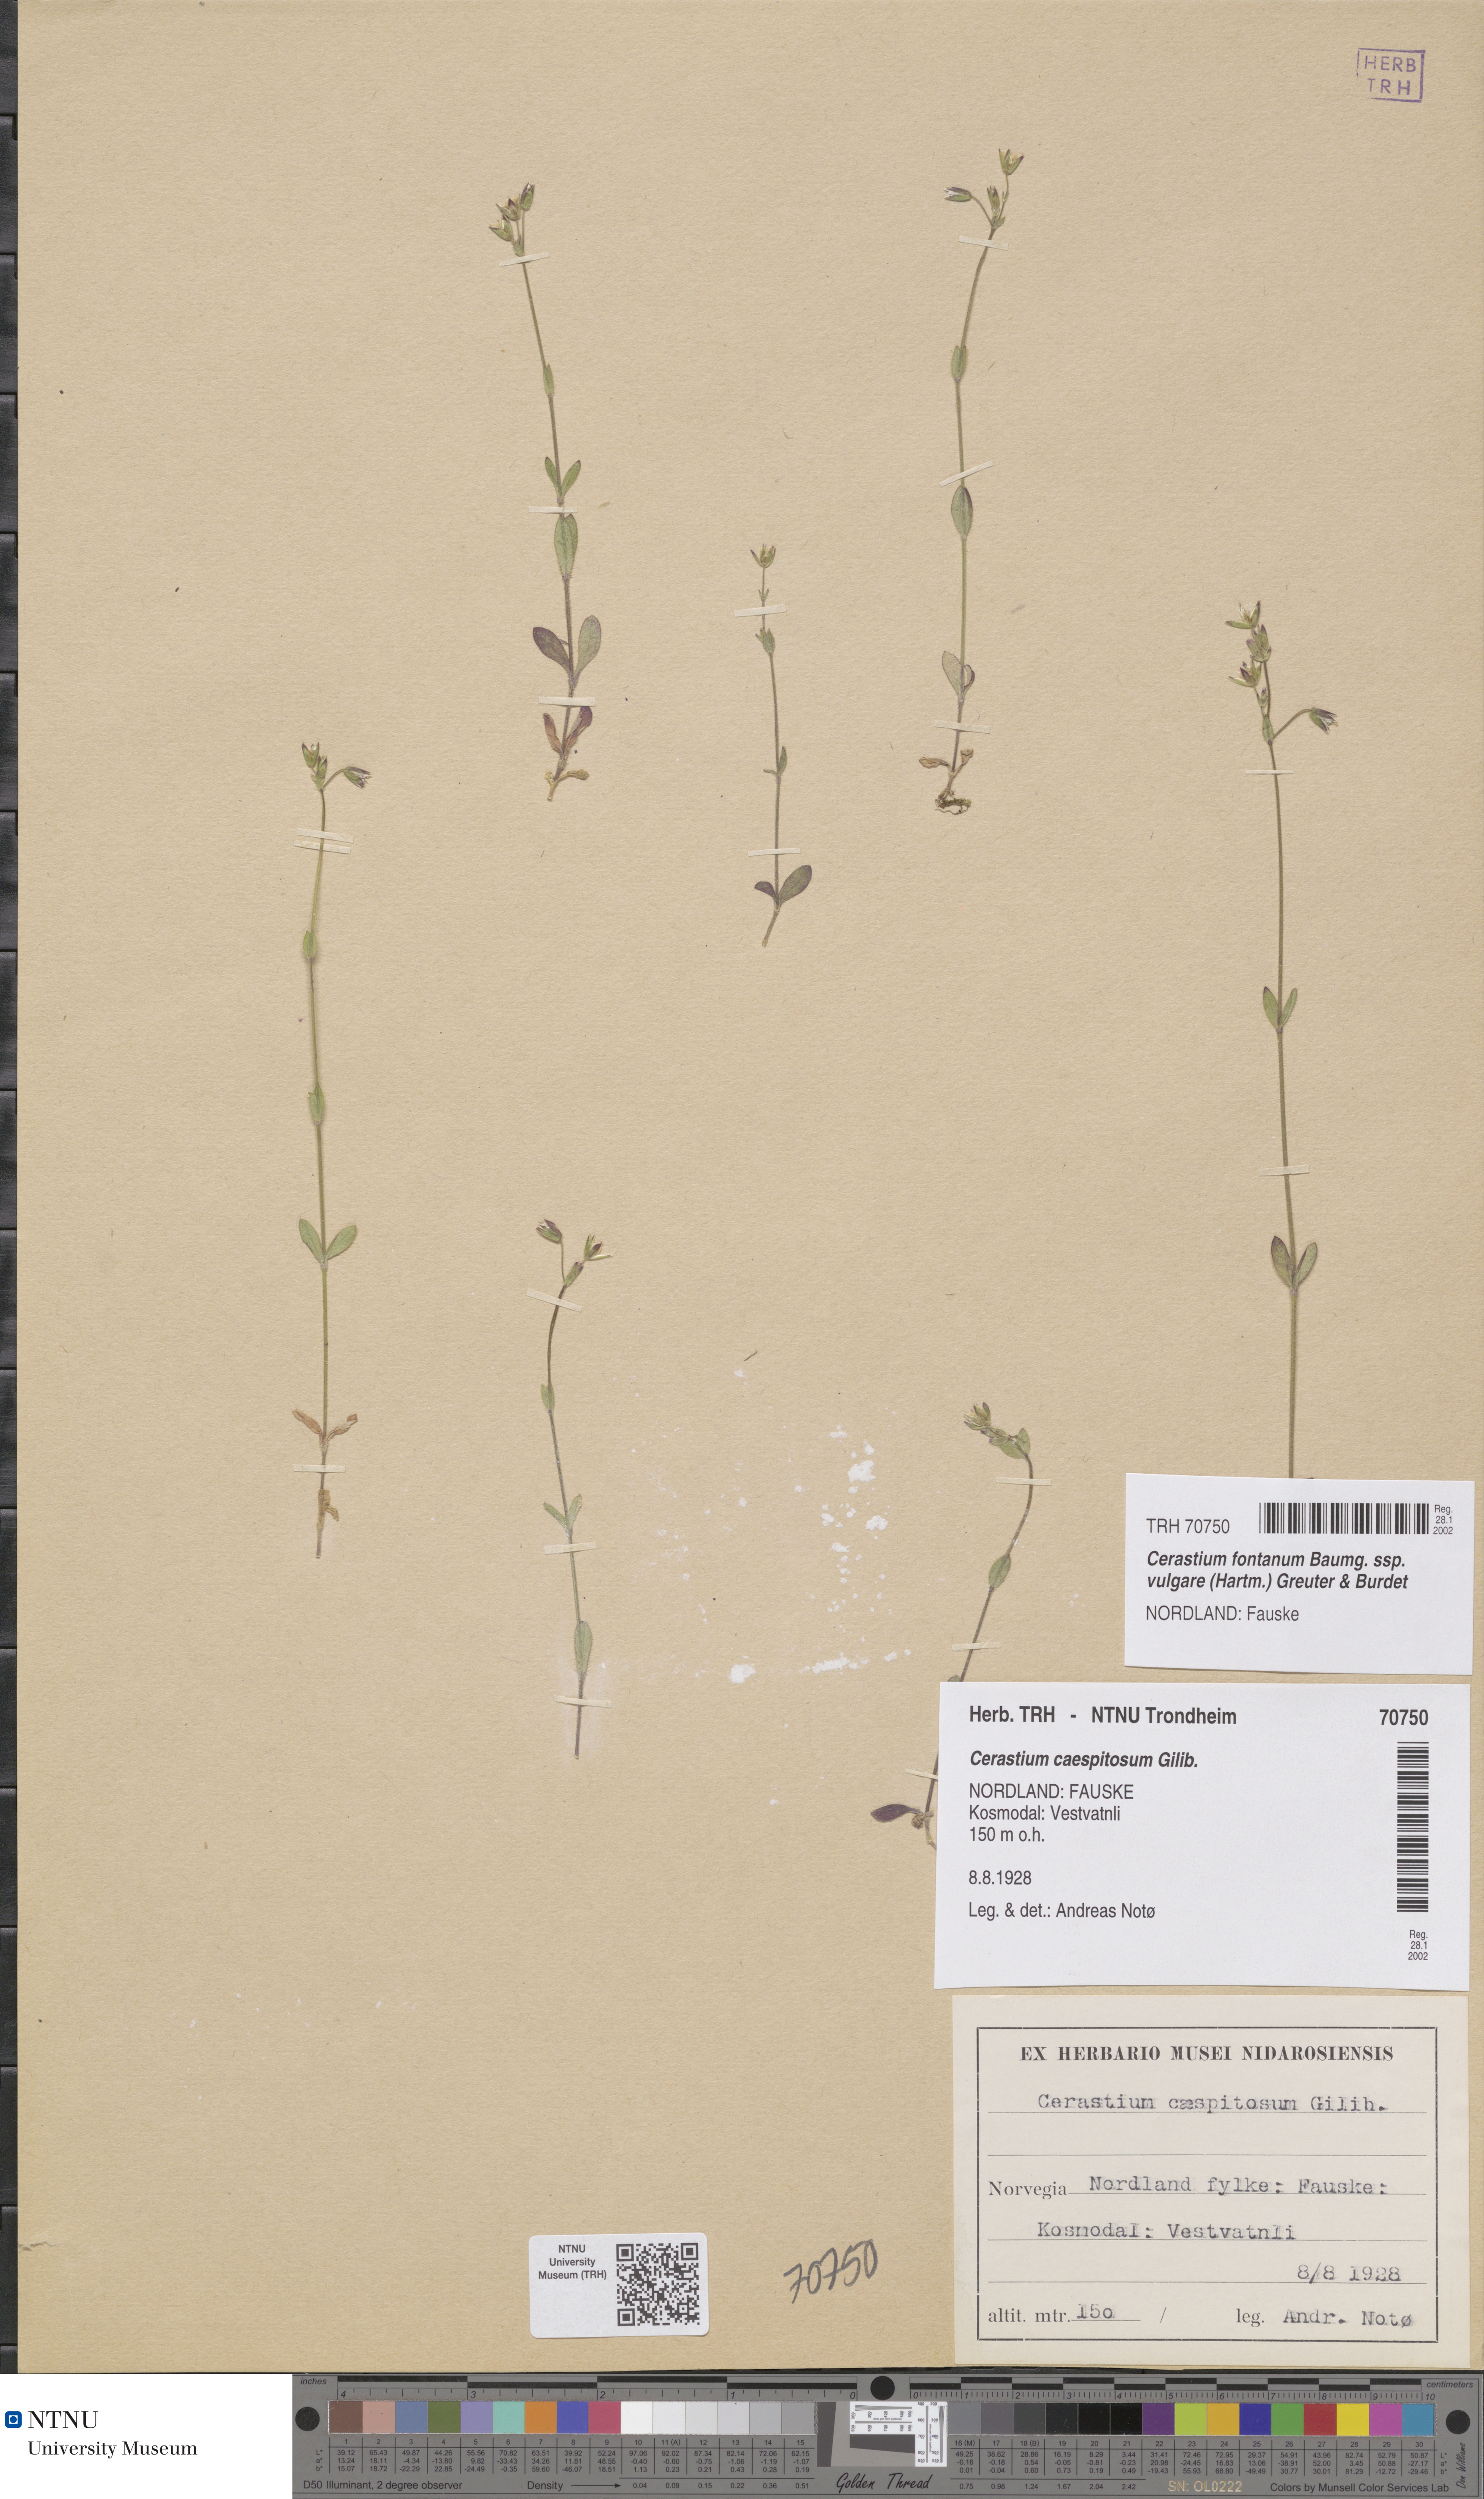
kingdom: Plantae
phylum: Tracheophyta
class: Magnoliopsida
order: Caryophyllales
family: Caryophyllaceae
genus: Cerastium
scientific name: Cerastium holosteoides
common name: Big chickweed
